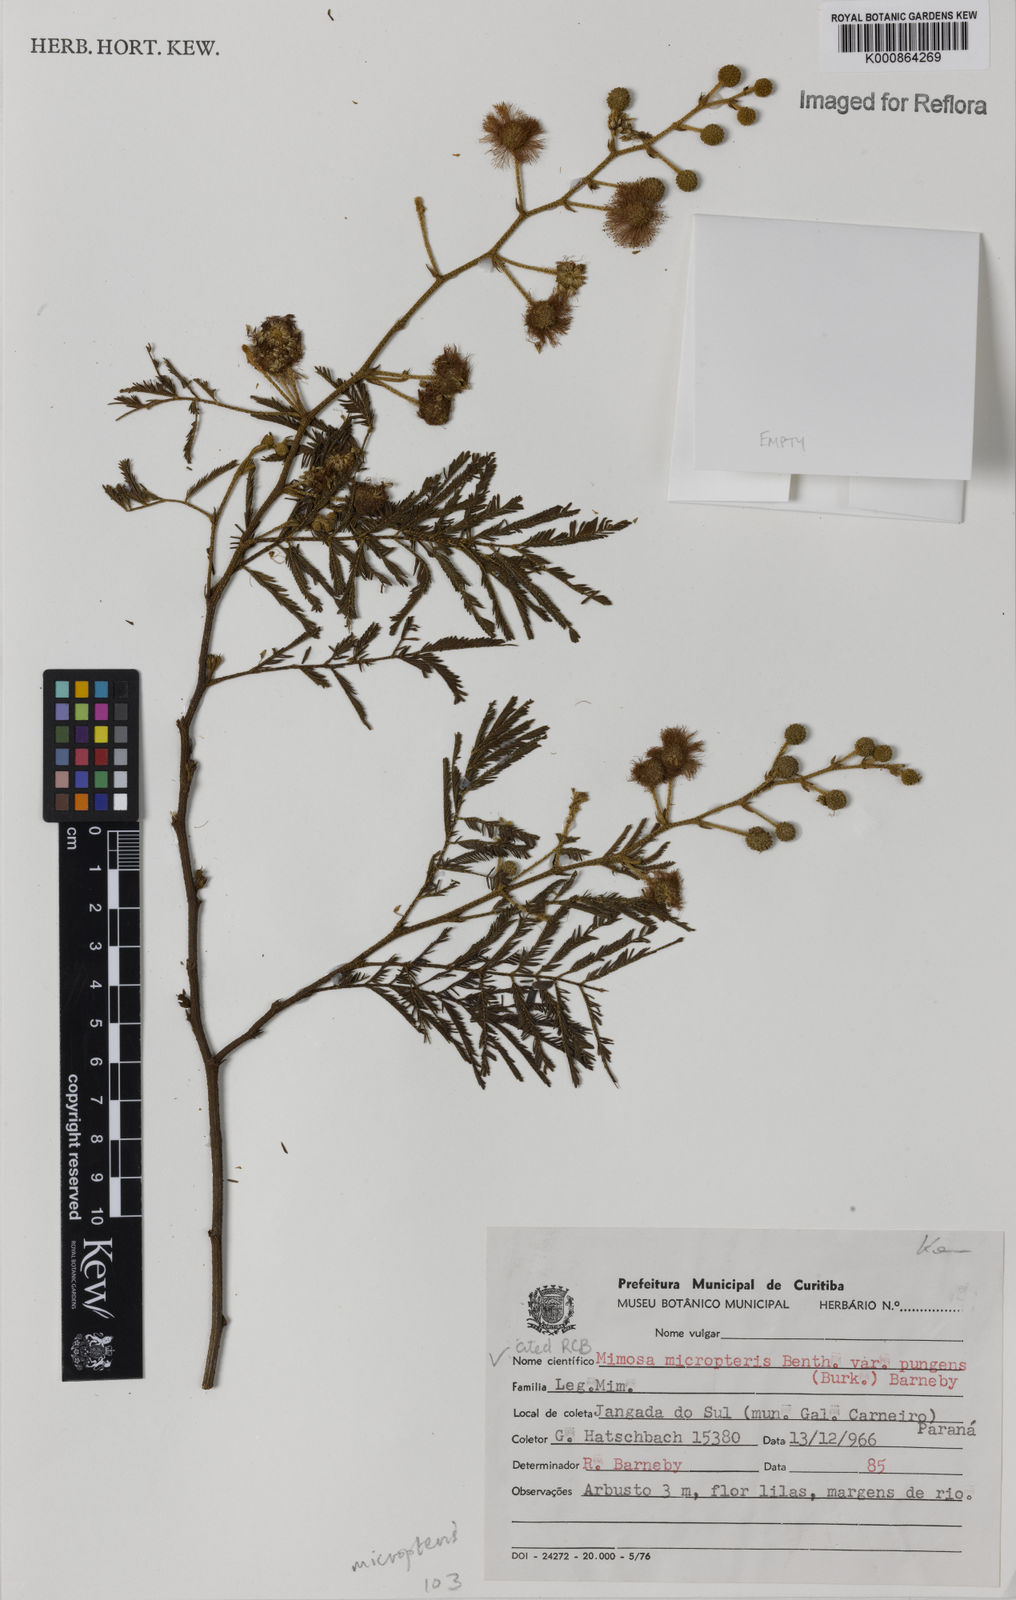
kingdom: Plantae
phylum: Tracheophyta
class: Magnoliopsida
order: Fabales
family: Fabaceae
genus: Mimosa
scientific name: Mimosa micropteris
